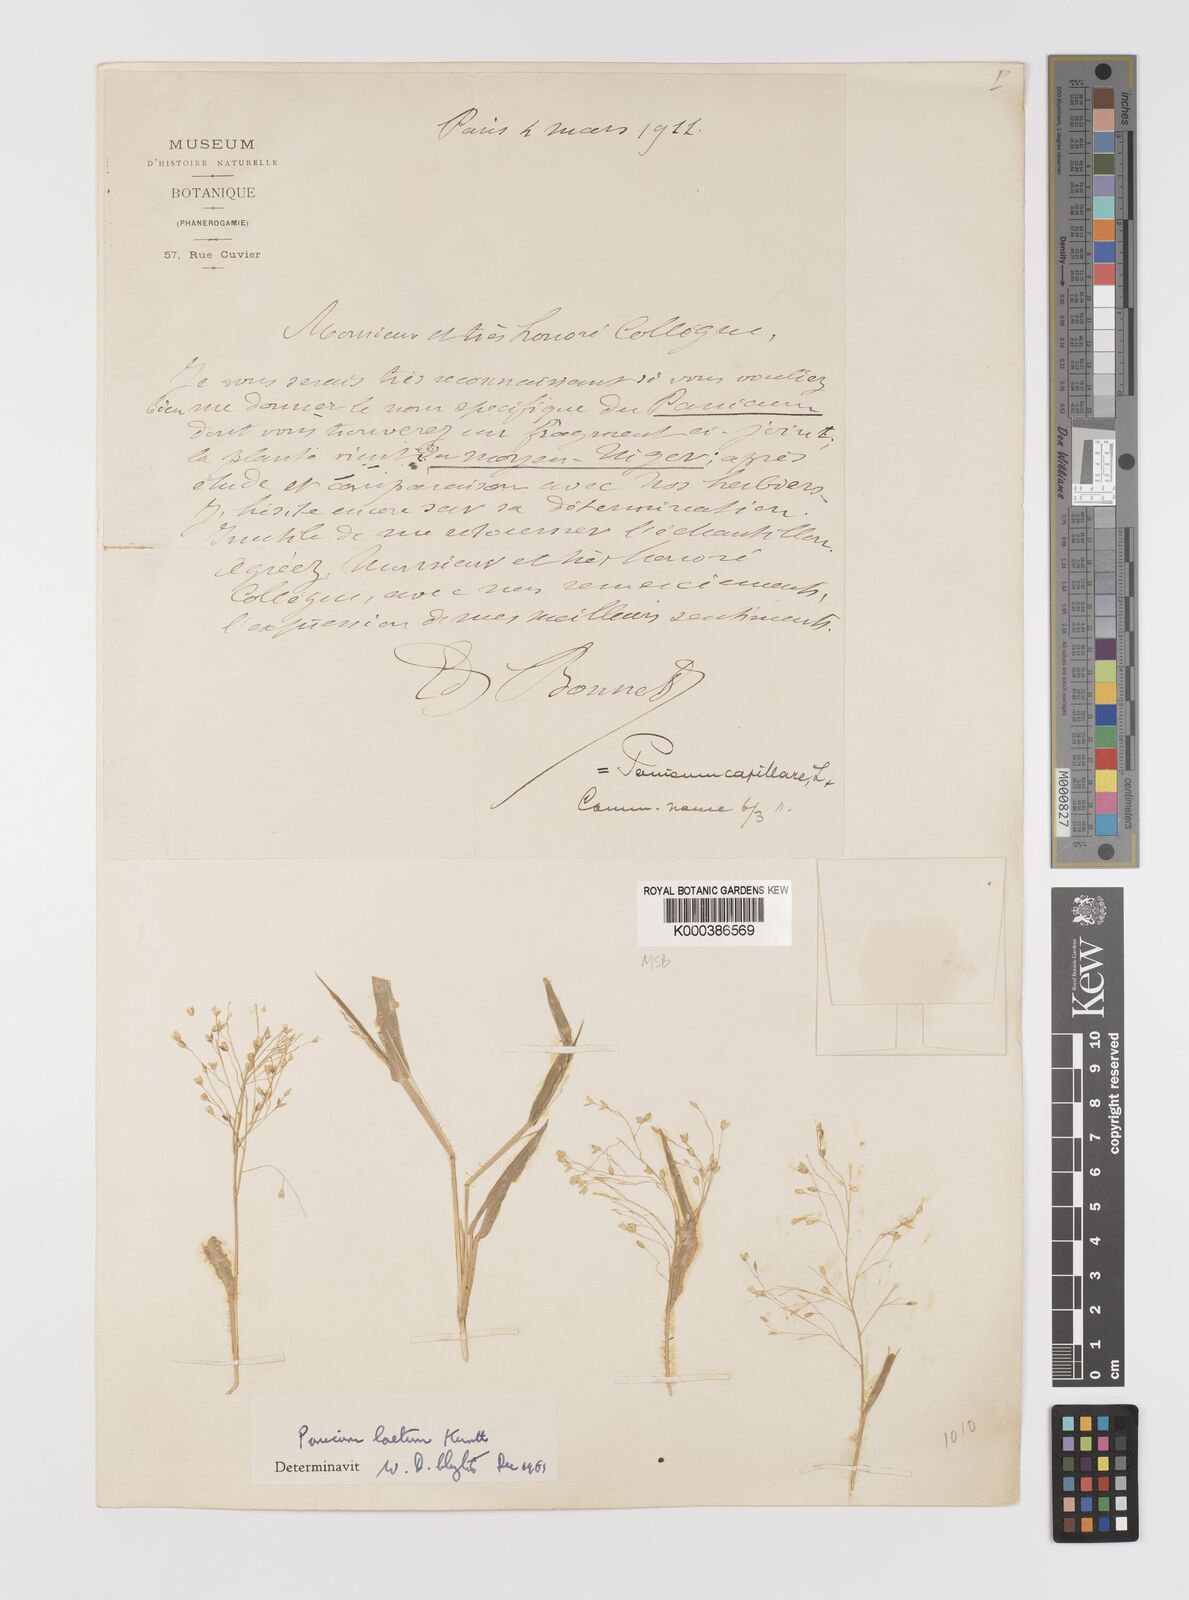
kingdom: Plantae
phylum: Tracheophyta
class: Liliopsida
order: Poales
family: Poaceae
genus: Panicum
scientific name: Panicum laetum
